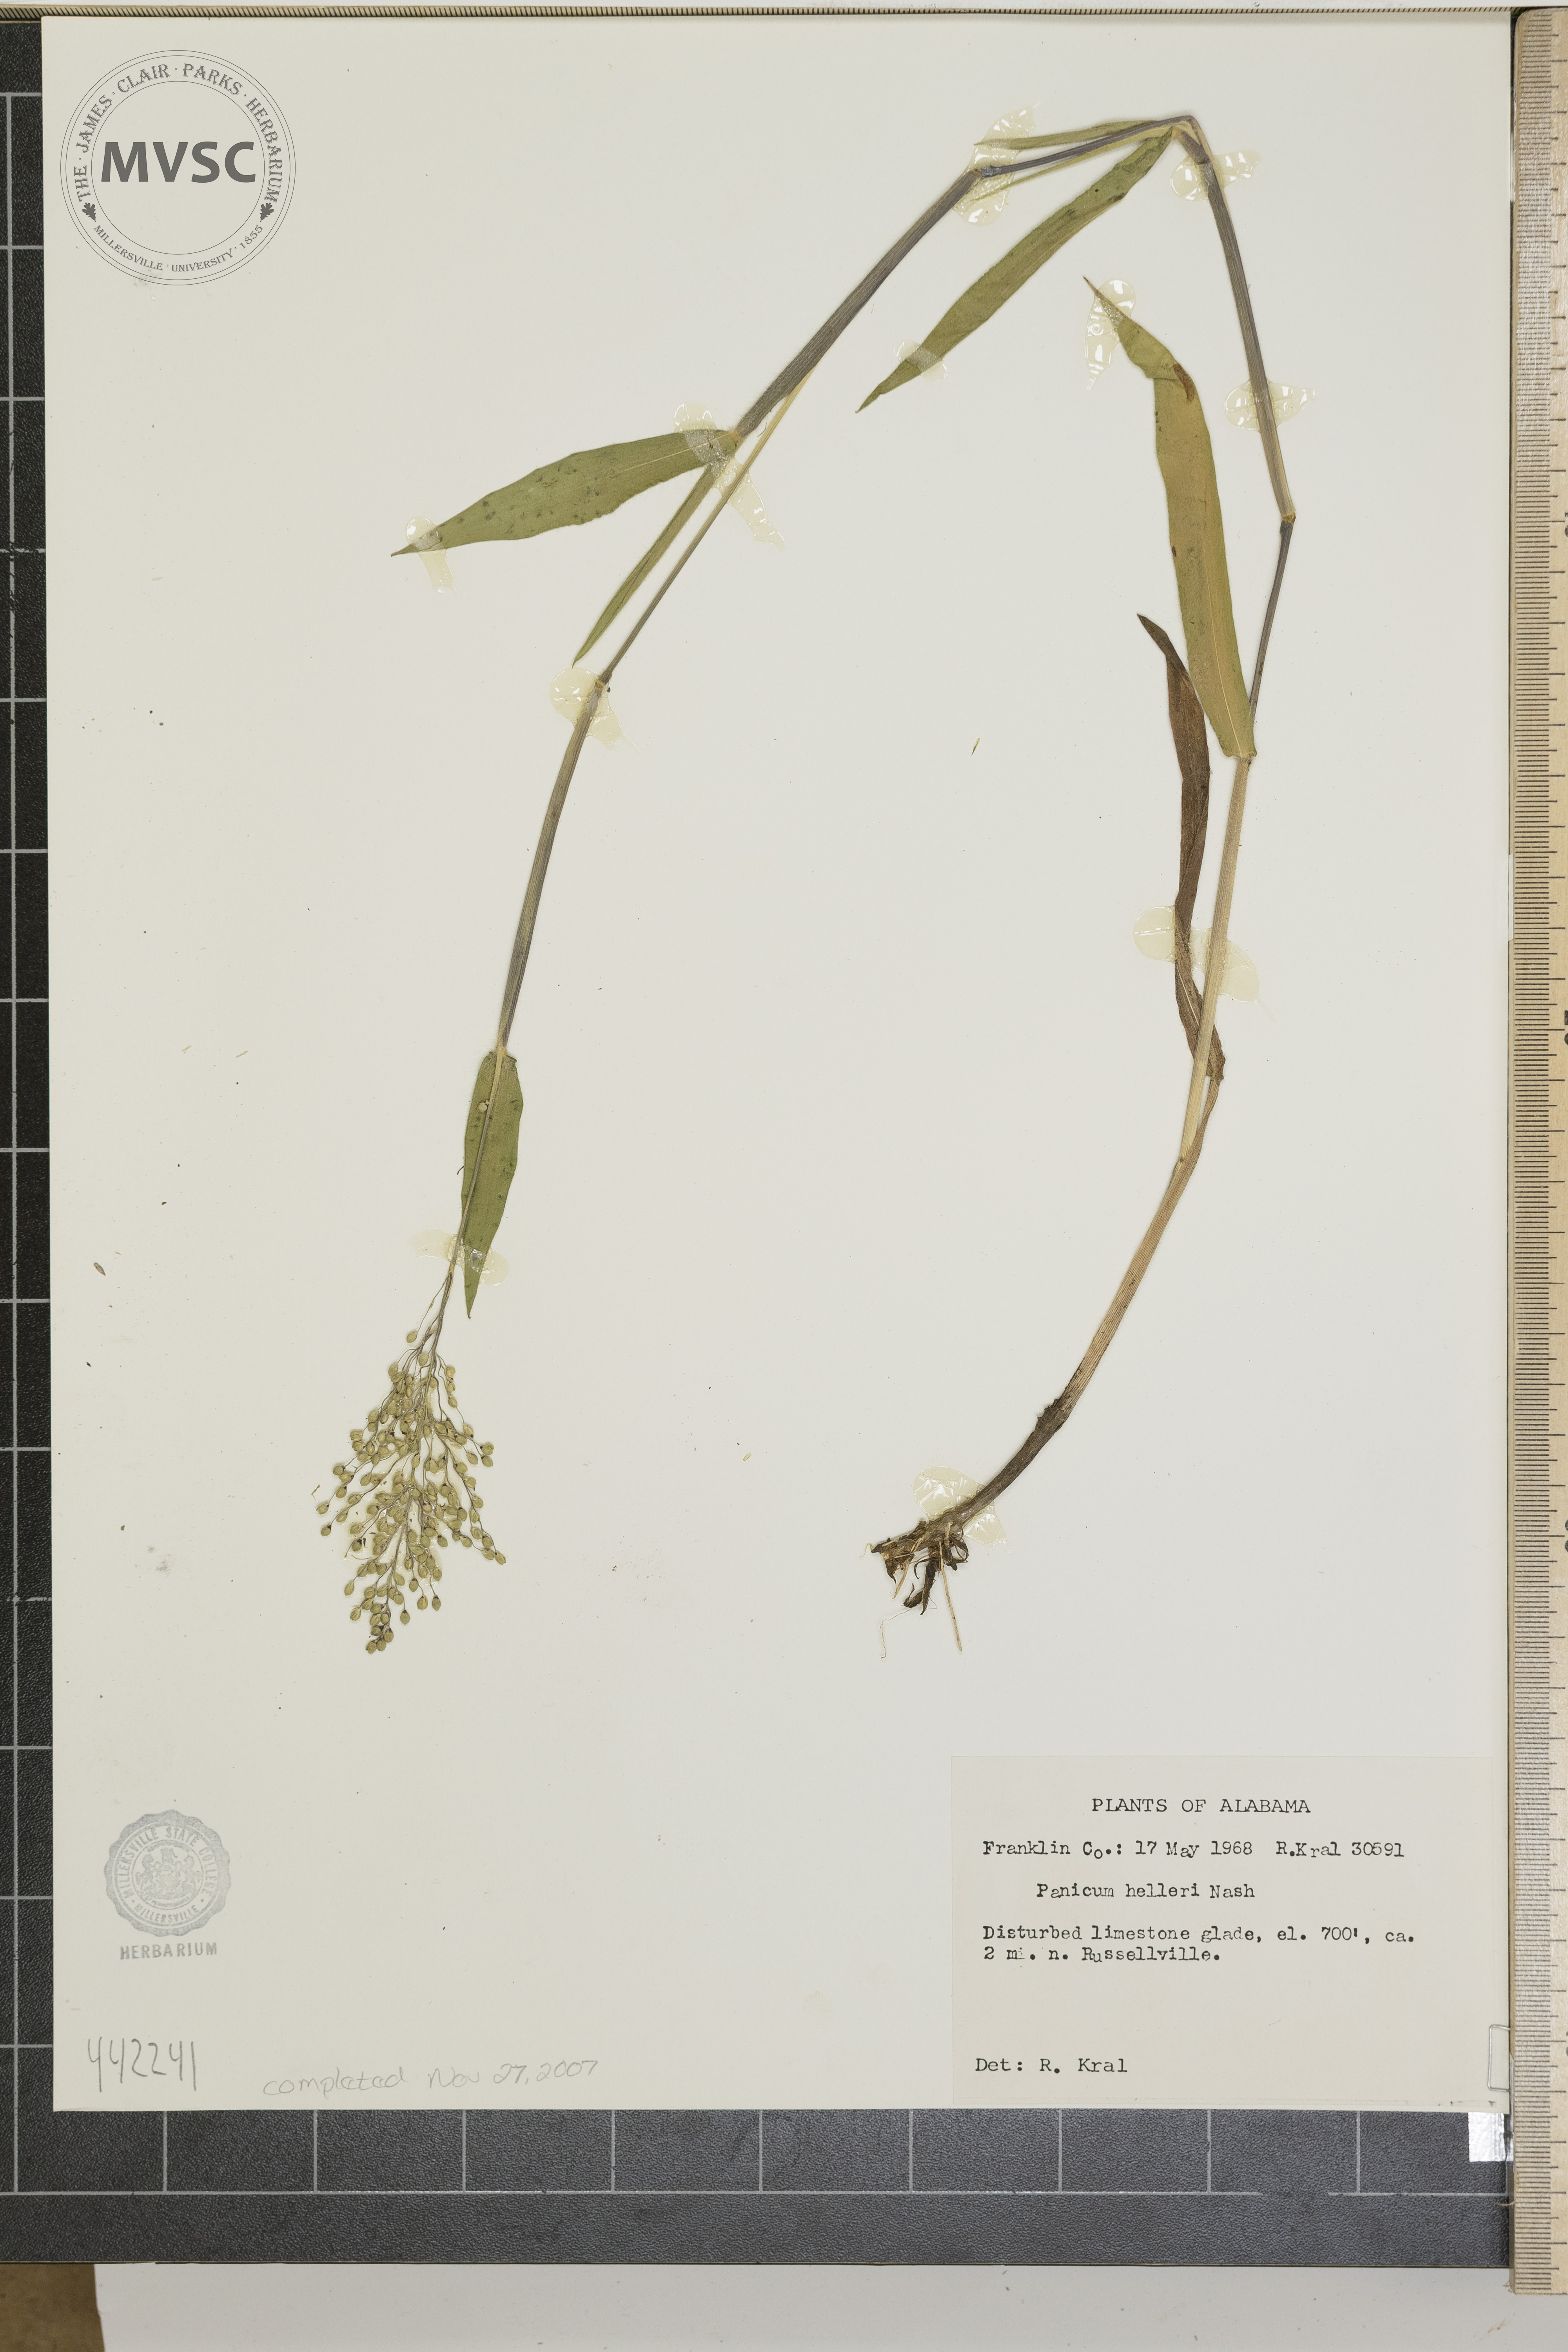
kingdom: Plantae
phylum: Tracheophyta
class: Liliopsida
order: Poales
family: Poaceae
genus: Dichanthelium
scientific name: Dichanthelium oligosanthes
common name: Few-anther obscuregrass
